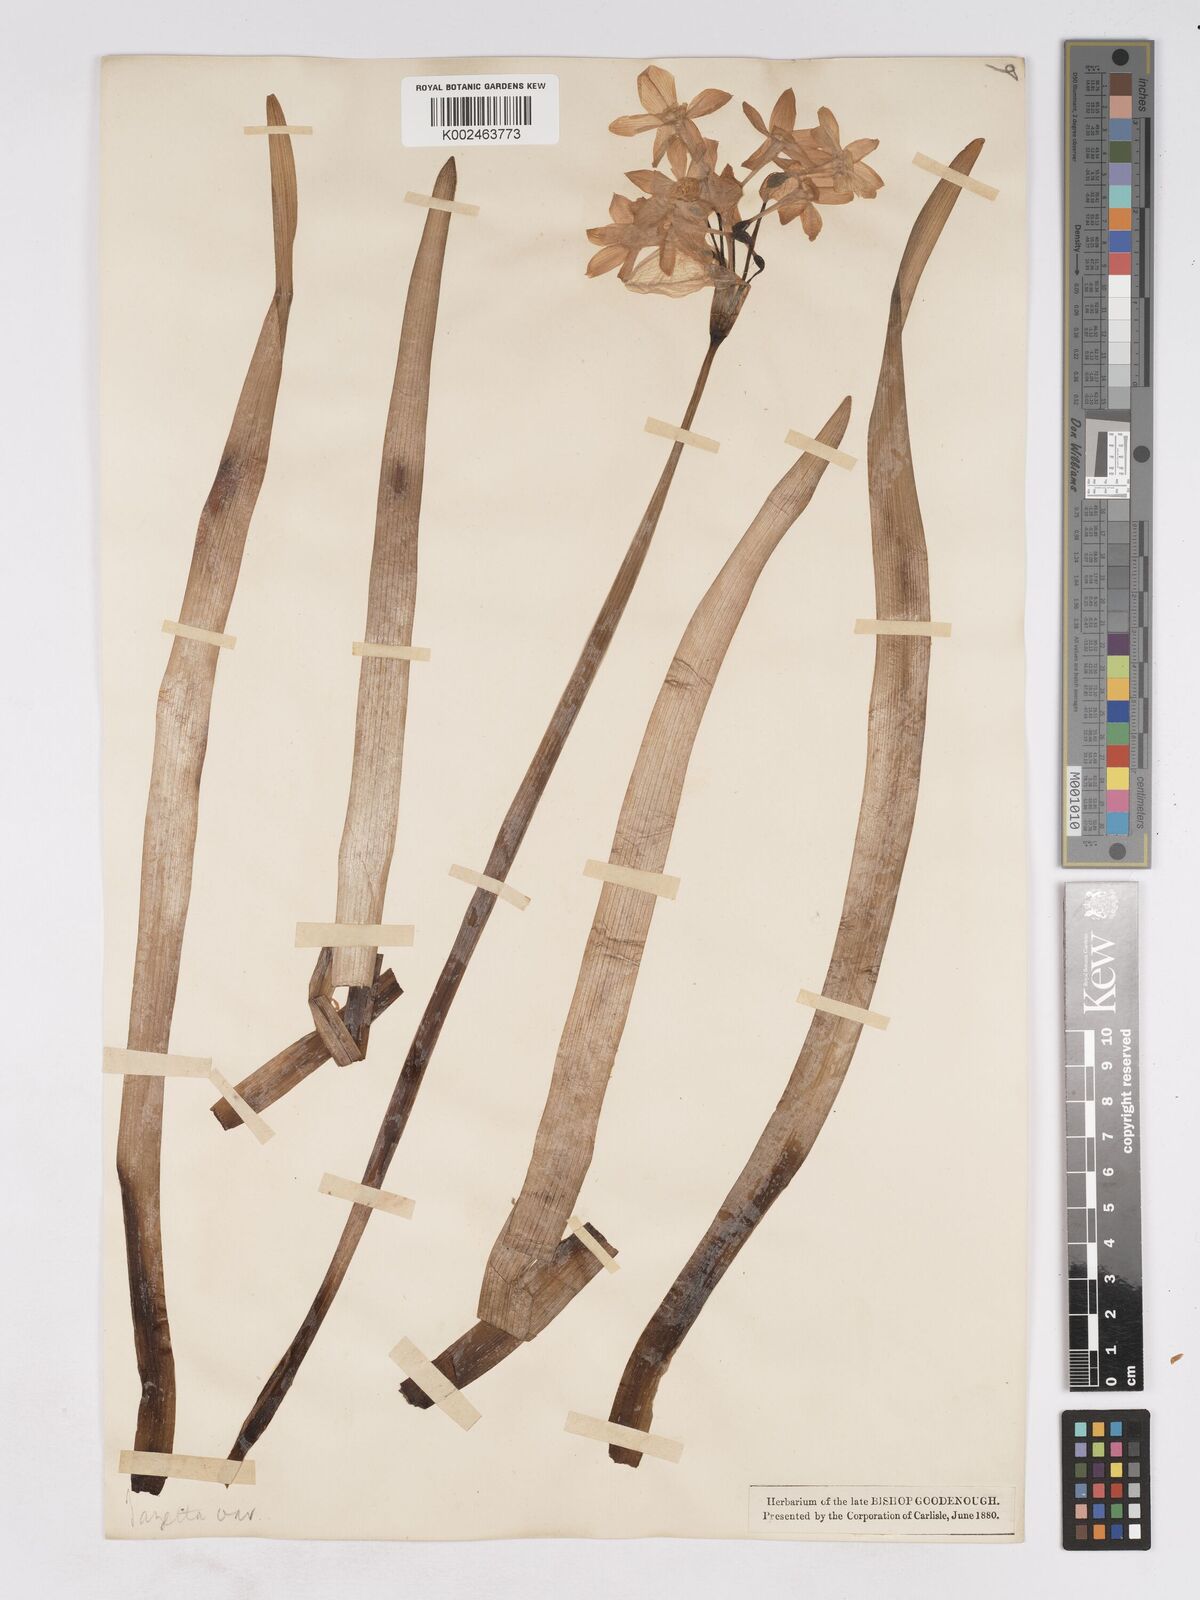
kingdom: Plantae
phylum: Tracheophyta
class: Liliopsida
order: Asparagales
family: Amaryllidaceae
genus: Narcissus
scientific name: Narcissus
